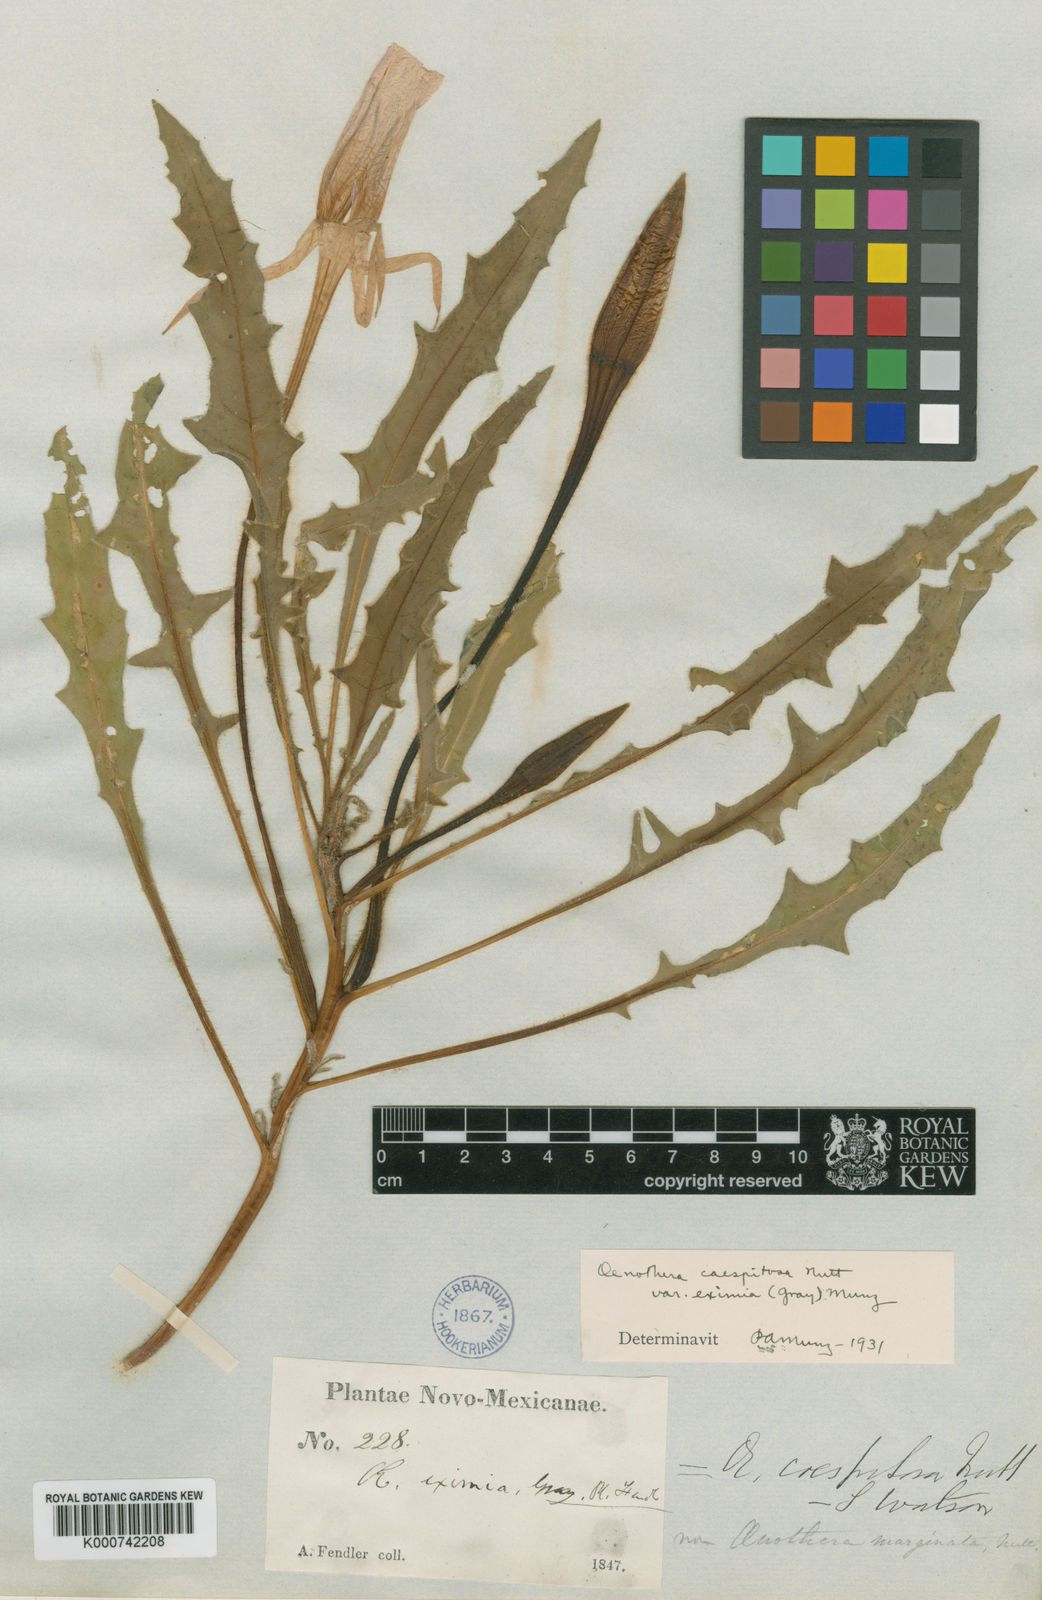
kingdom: Plantae
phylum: Tracheophyta
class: Magnoliopsida
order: Myrtales
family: Onagraceae
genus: Oenothera
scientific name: Oenothera
